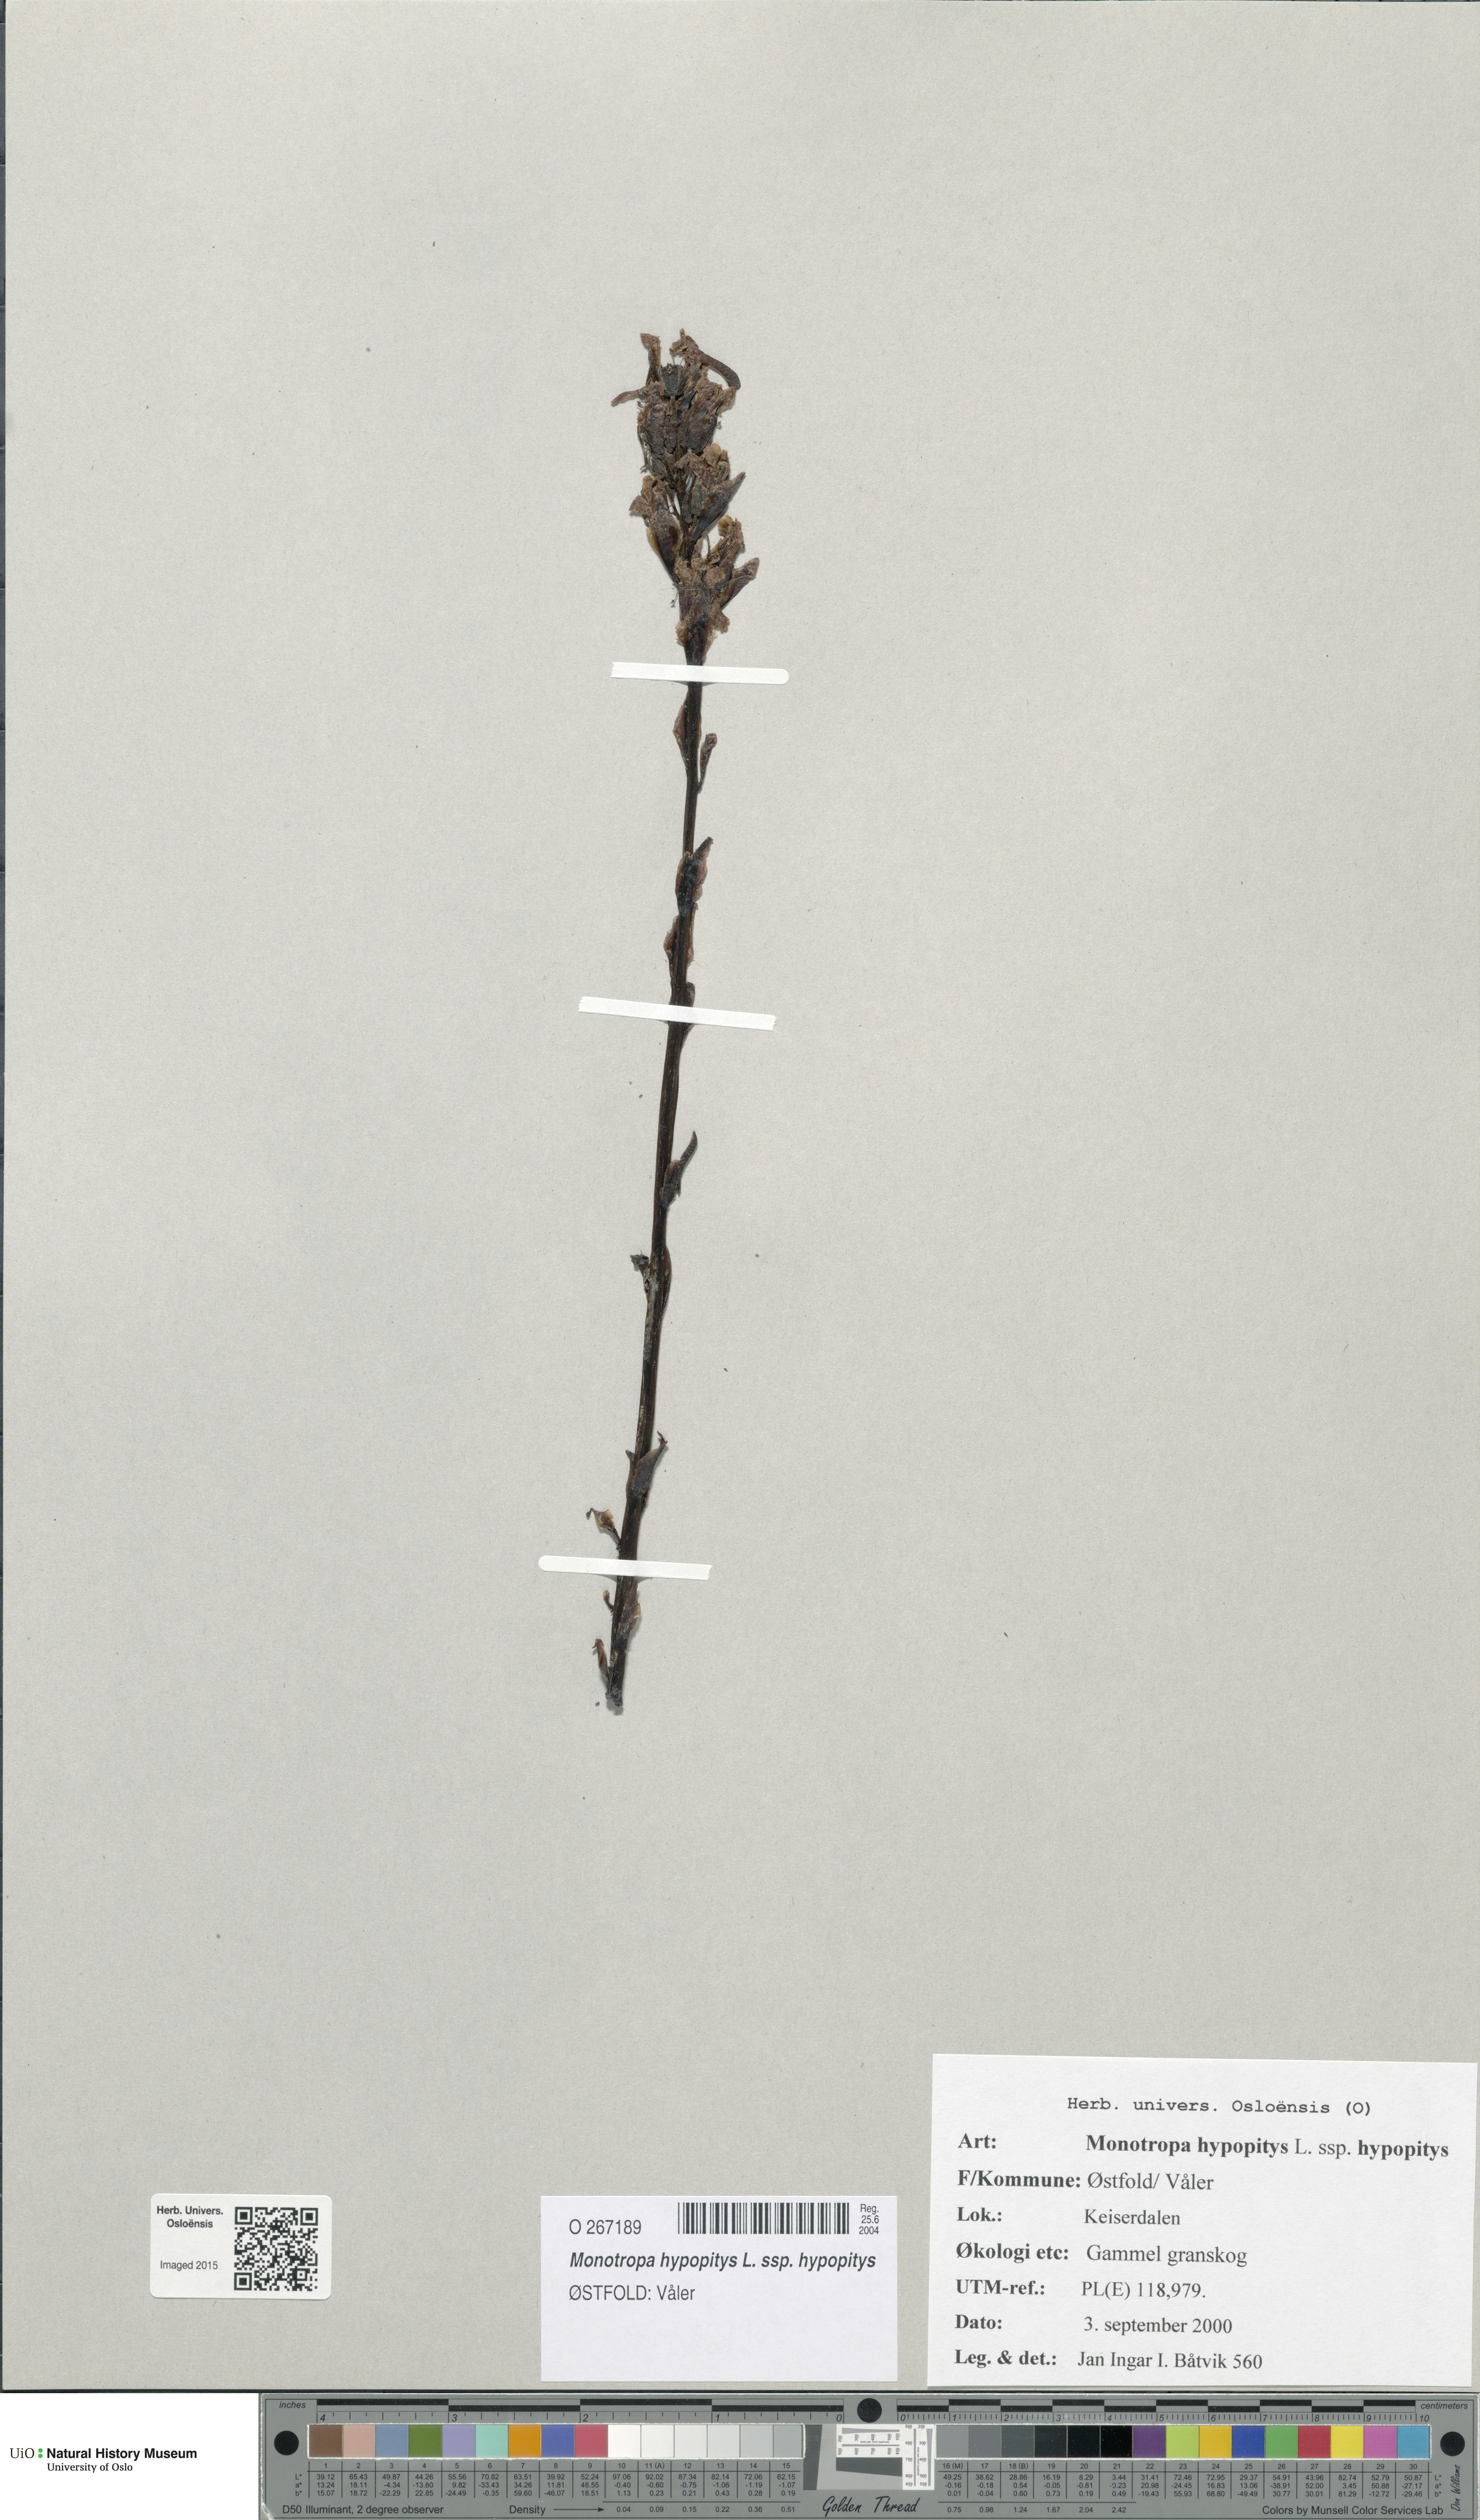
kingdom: Plantae
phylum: Tracheophyta
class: Magnoliopsida
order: Ericales
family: Ericaceae
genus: Hypopitys
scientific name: Hypopitys monotropa
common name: Yellow bird's-nest
